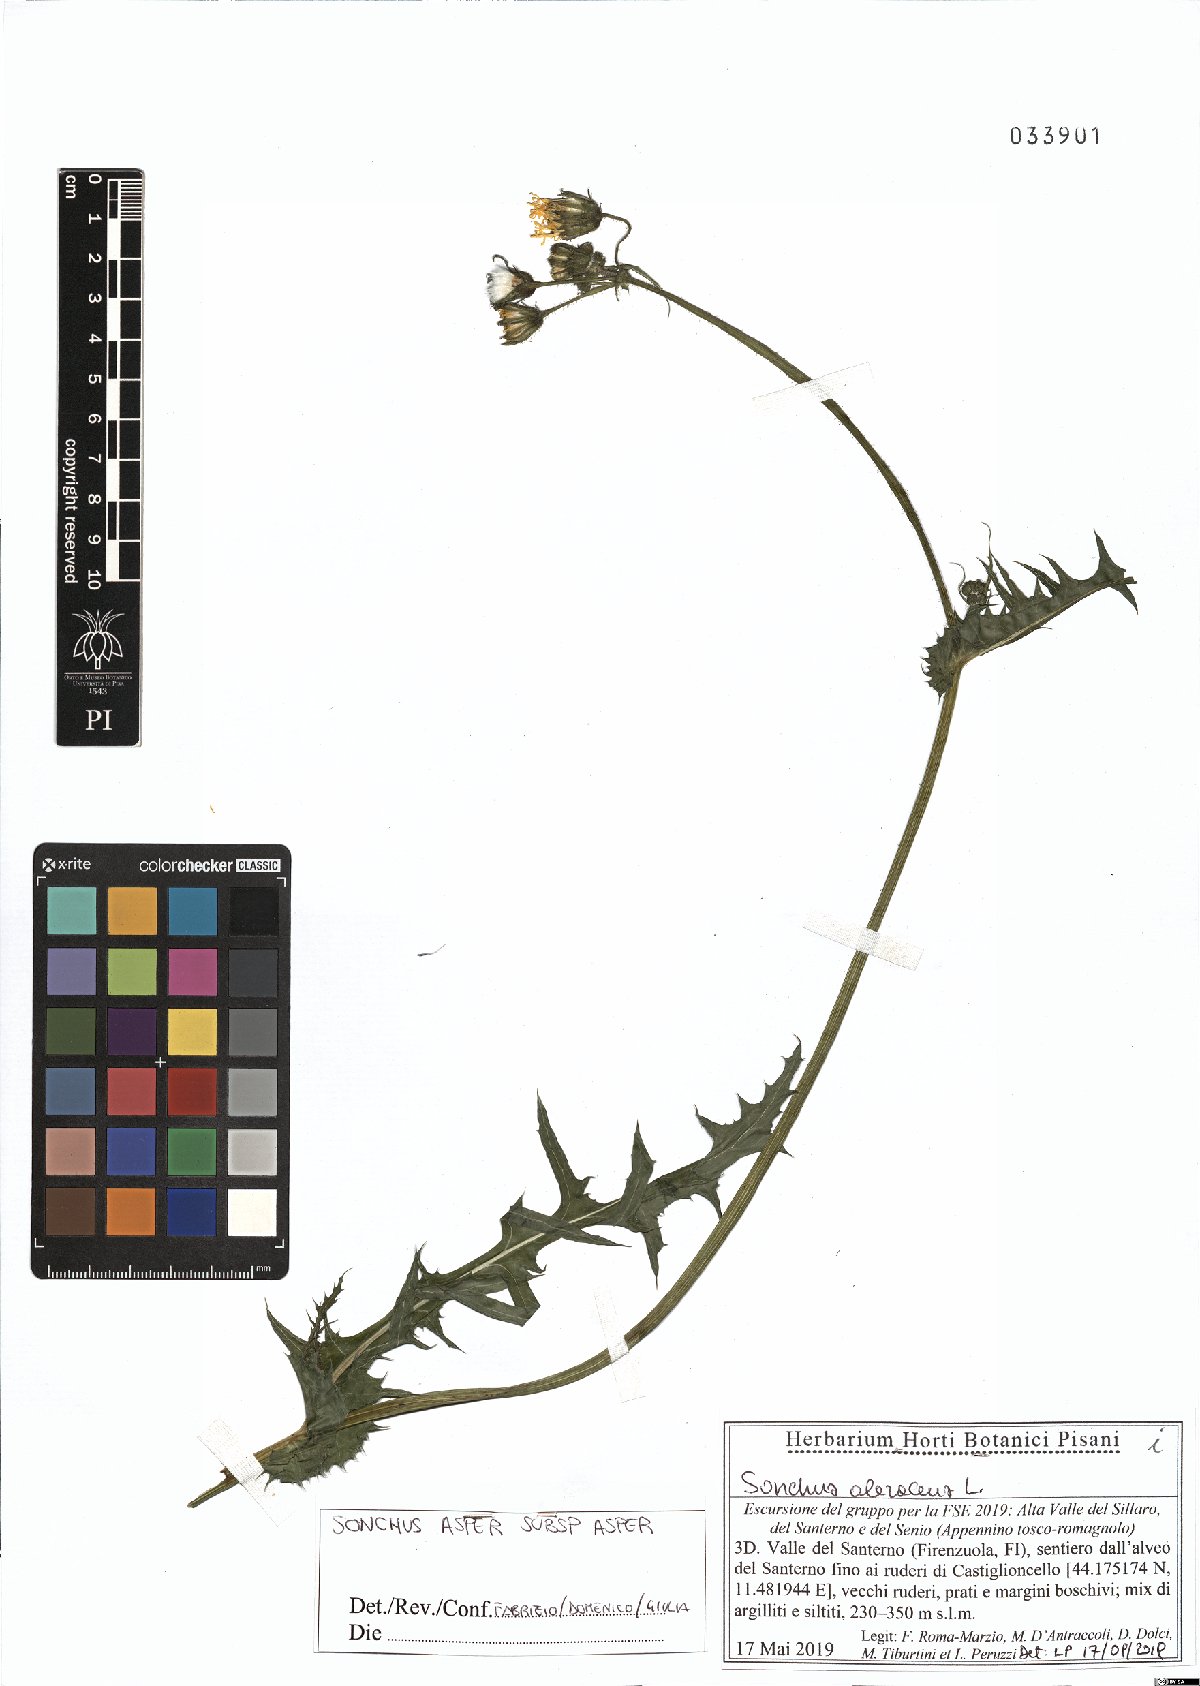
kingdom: Plantae
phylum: Tracheophyta
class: Magnoliopsida
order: Asterales
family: Asteraceae
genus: Sonchus
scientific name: Sonchus asper
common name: Prickly sow-thistle
